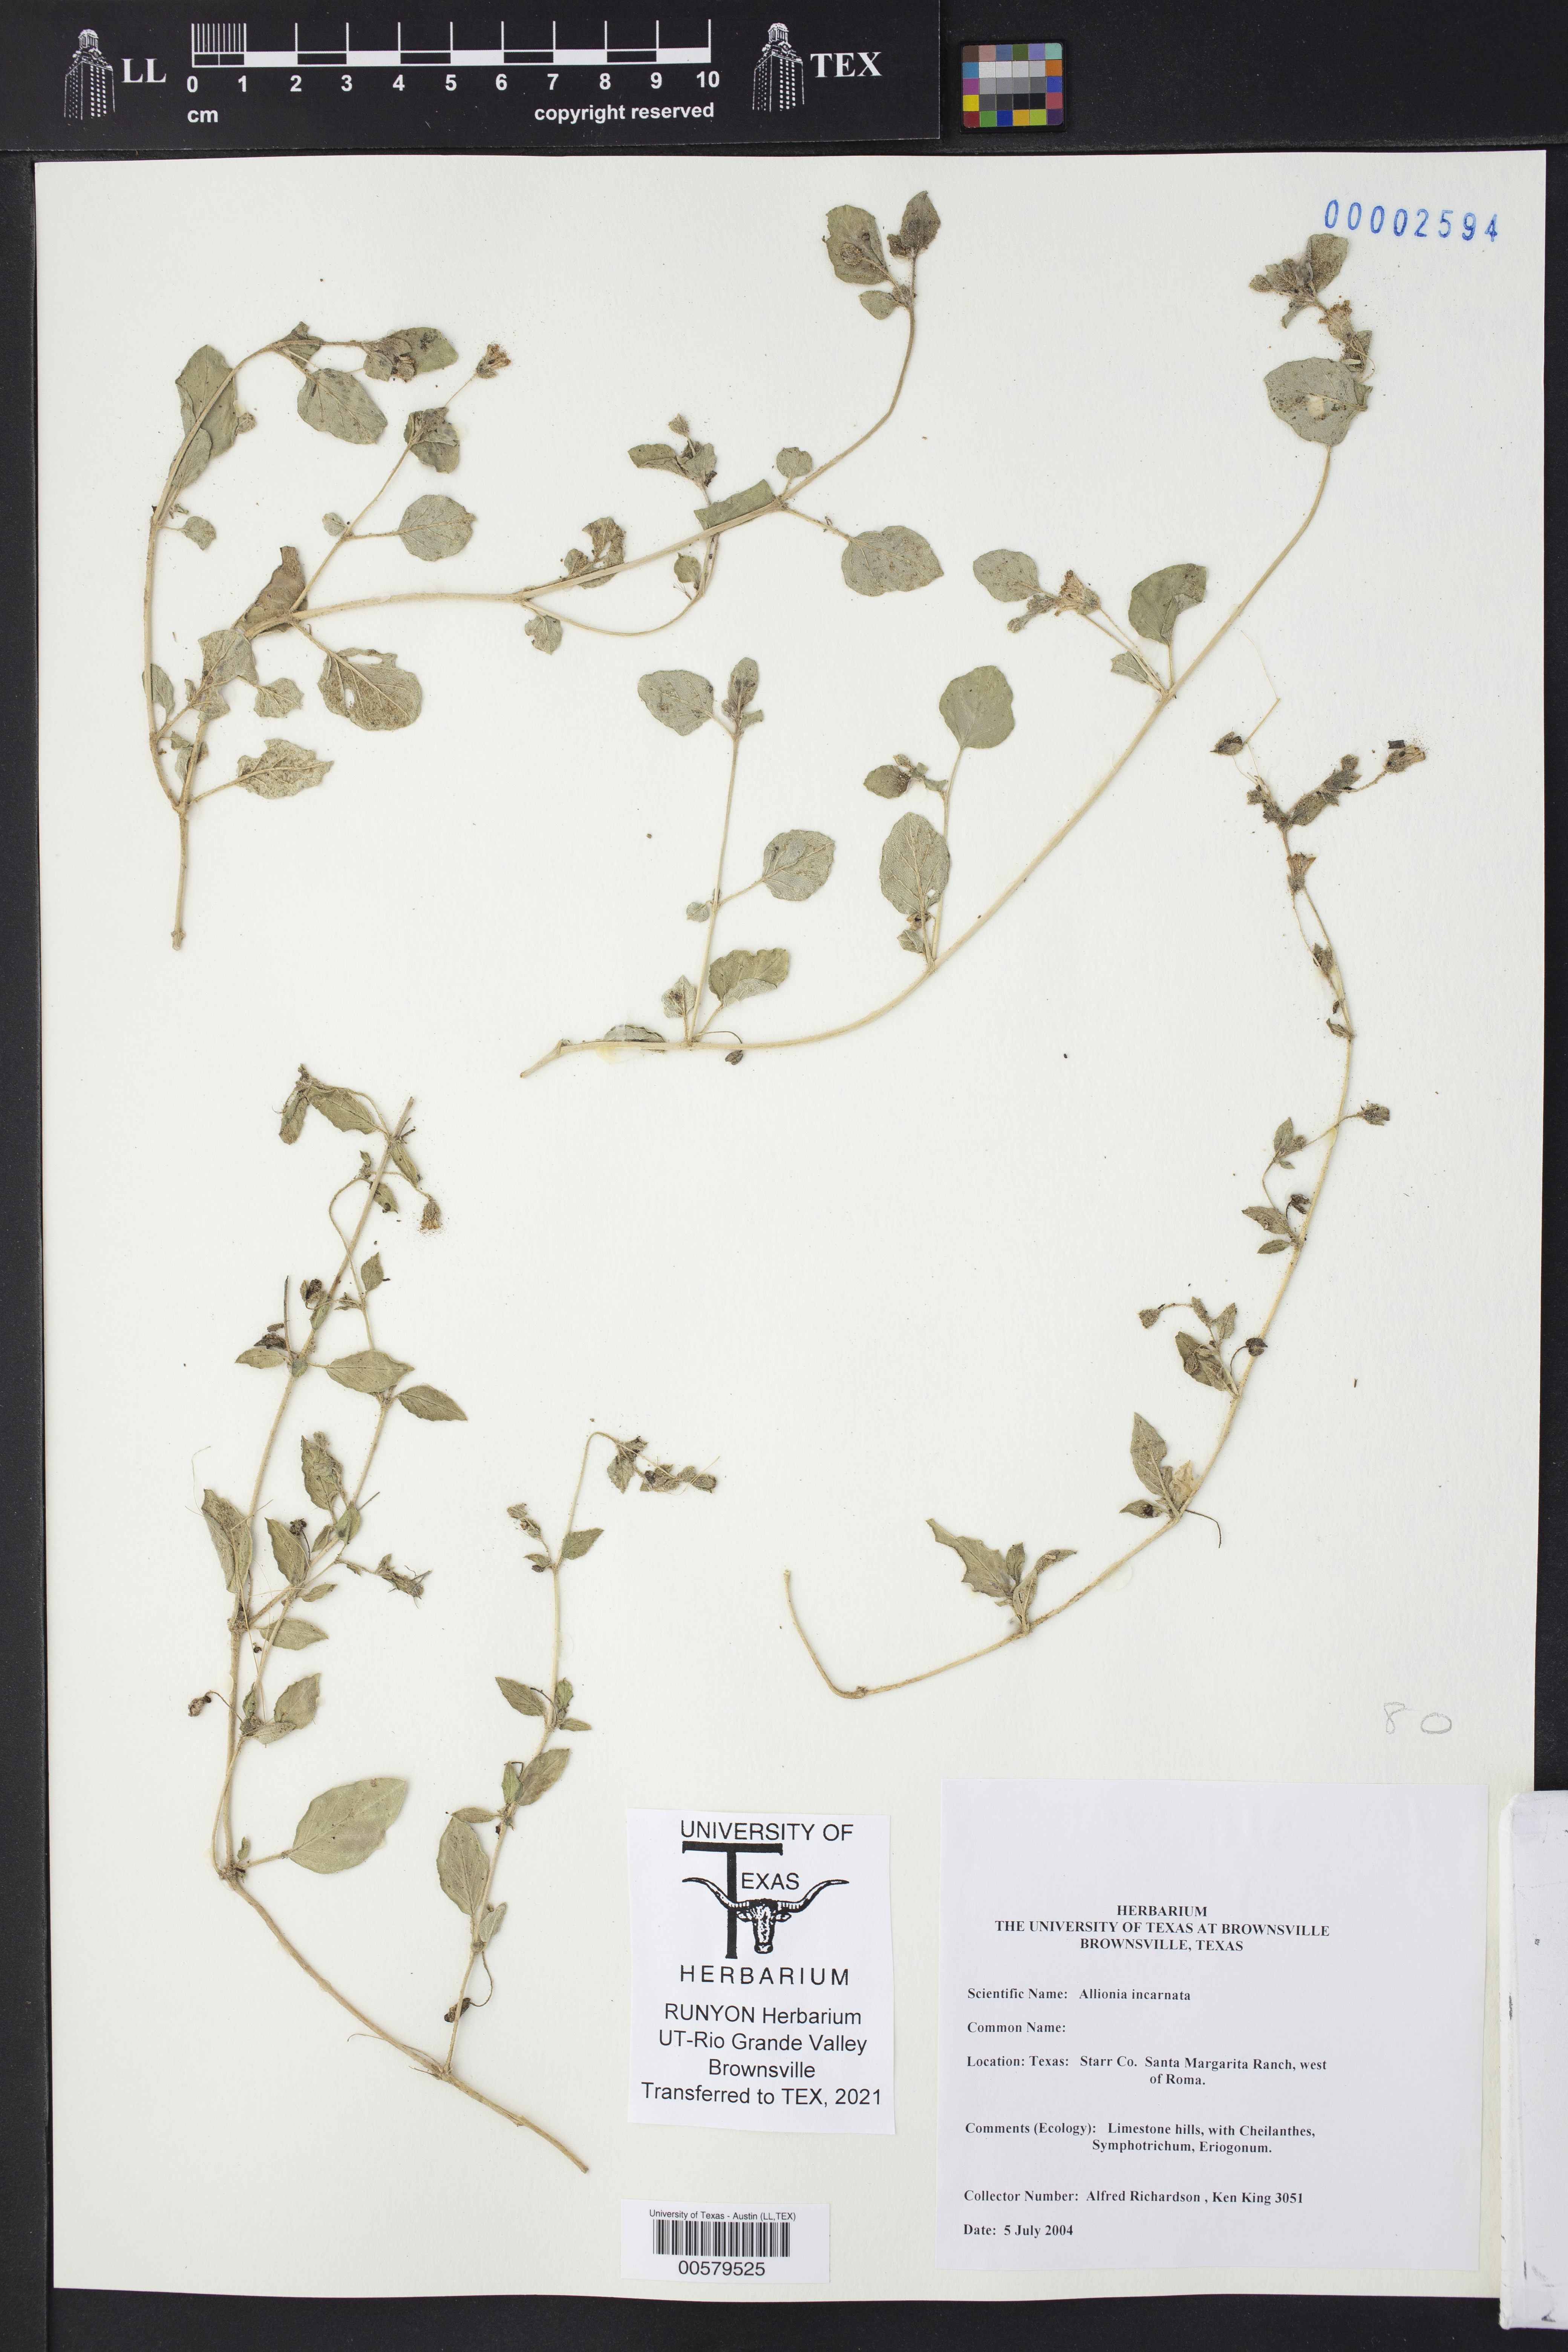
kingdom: Plantae
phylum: Tracheophyta
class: Magnoliopsida
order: Caryophyllales
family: Nyctaginaceae
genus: Allionia
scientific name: Allionia incarnata
